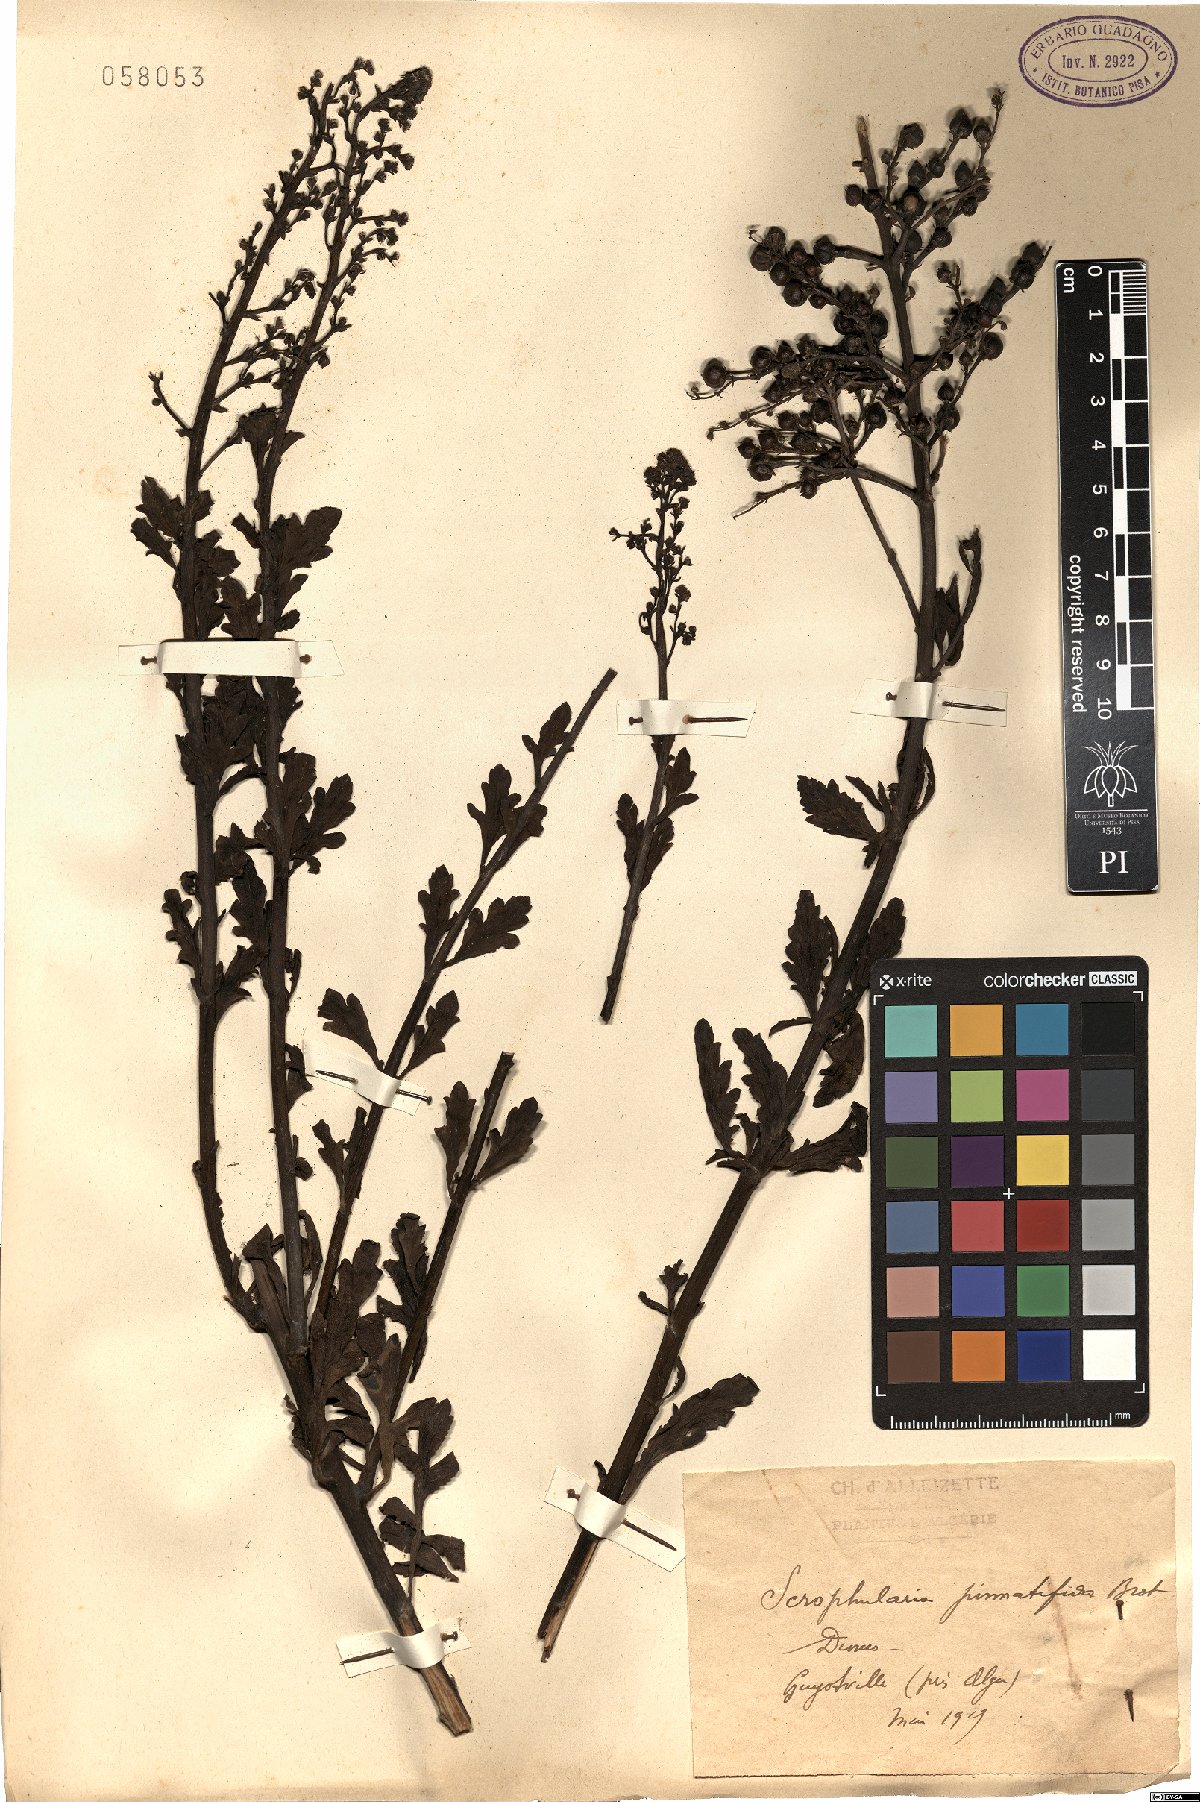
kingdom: Plantae
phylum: Tracheophyta
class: Magnoliopsida
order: Lamiales
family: Scrophulariaceae
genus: Scrophularia
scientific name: Scrophularia canina
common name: French figwort
